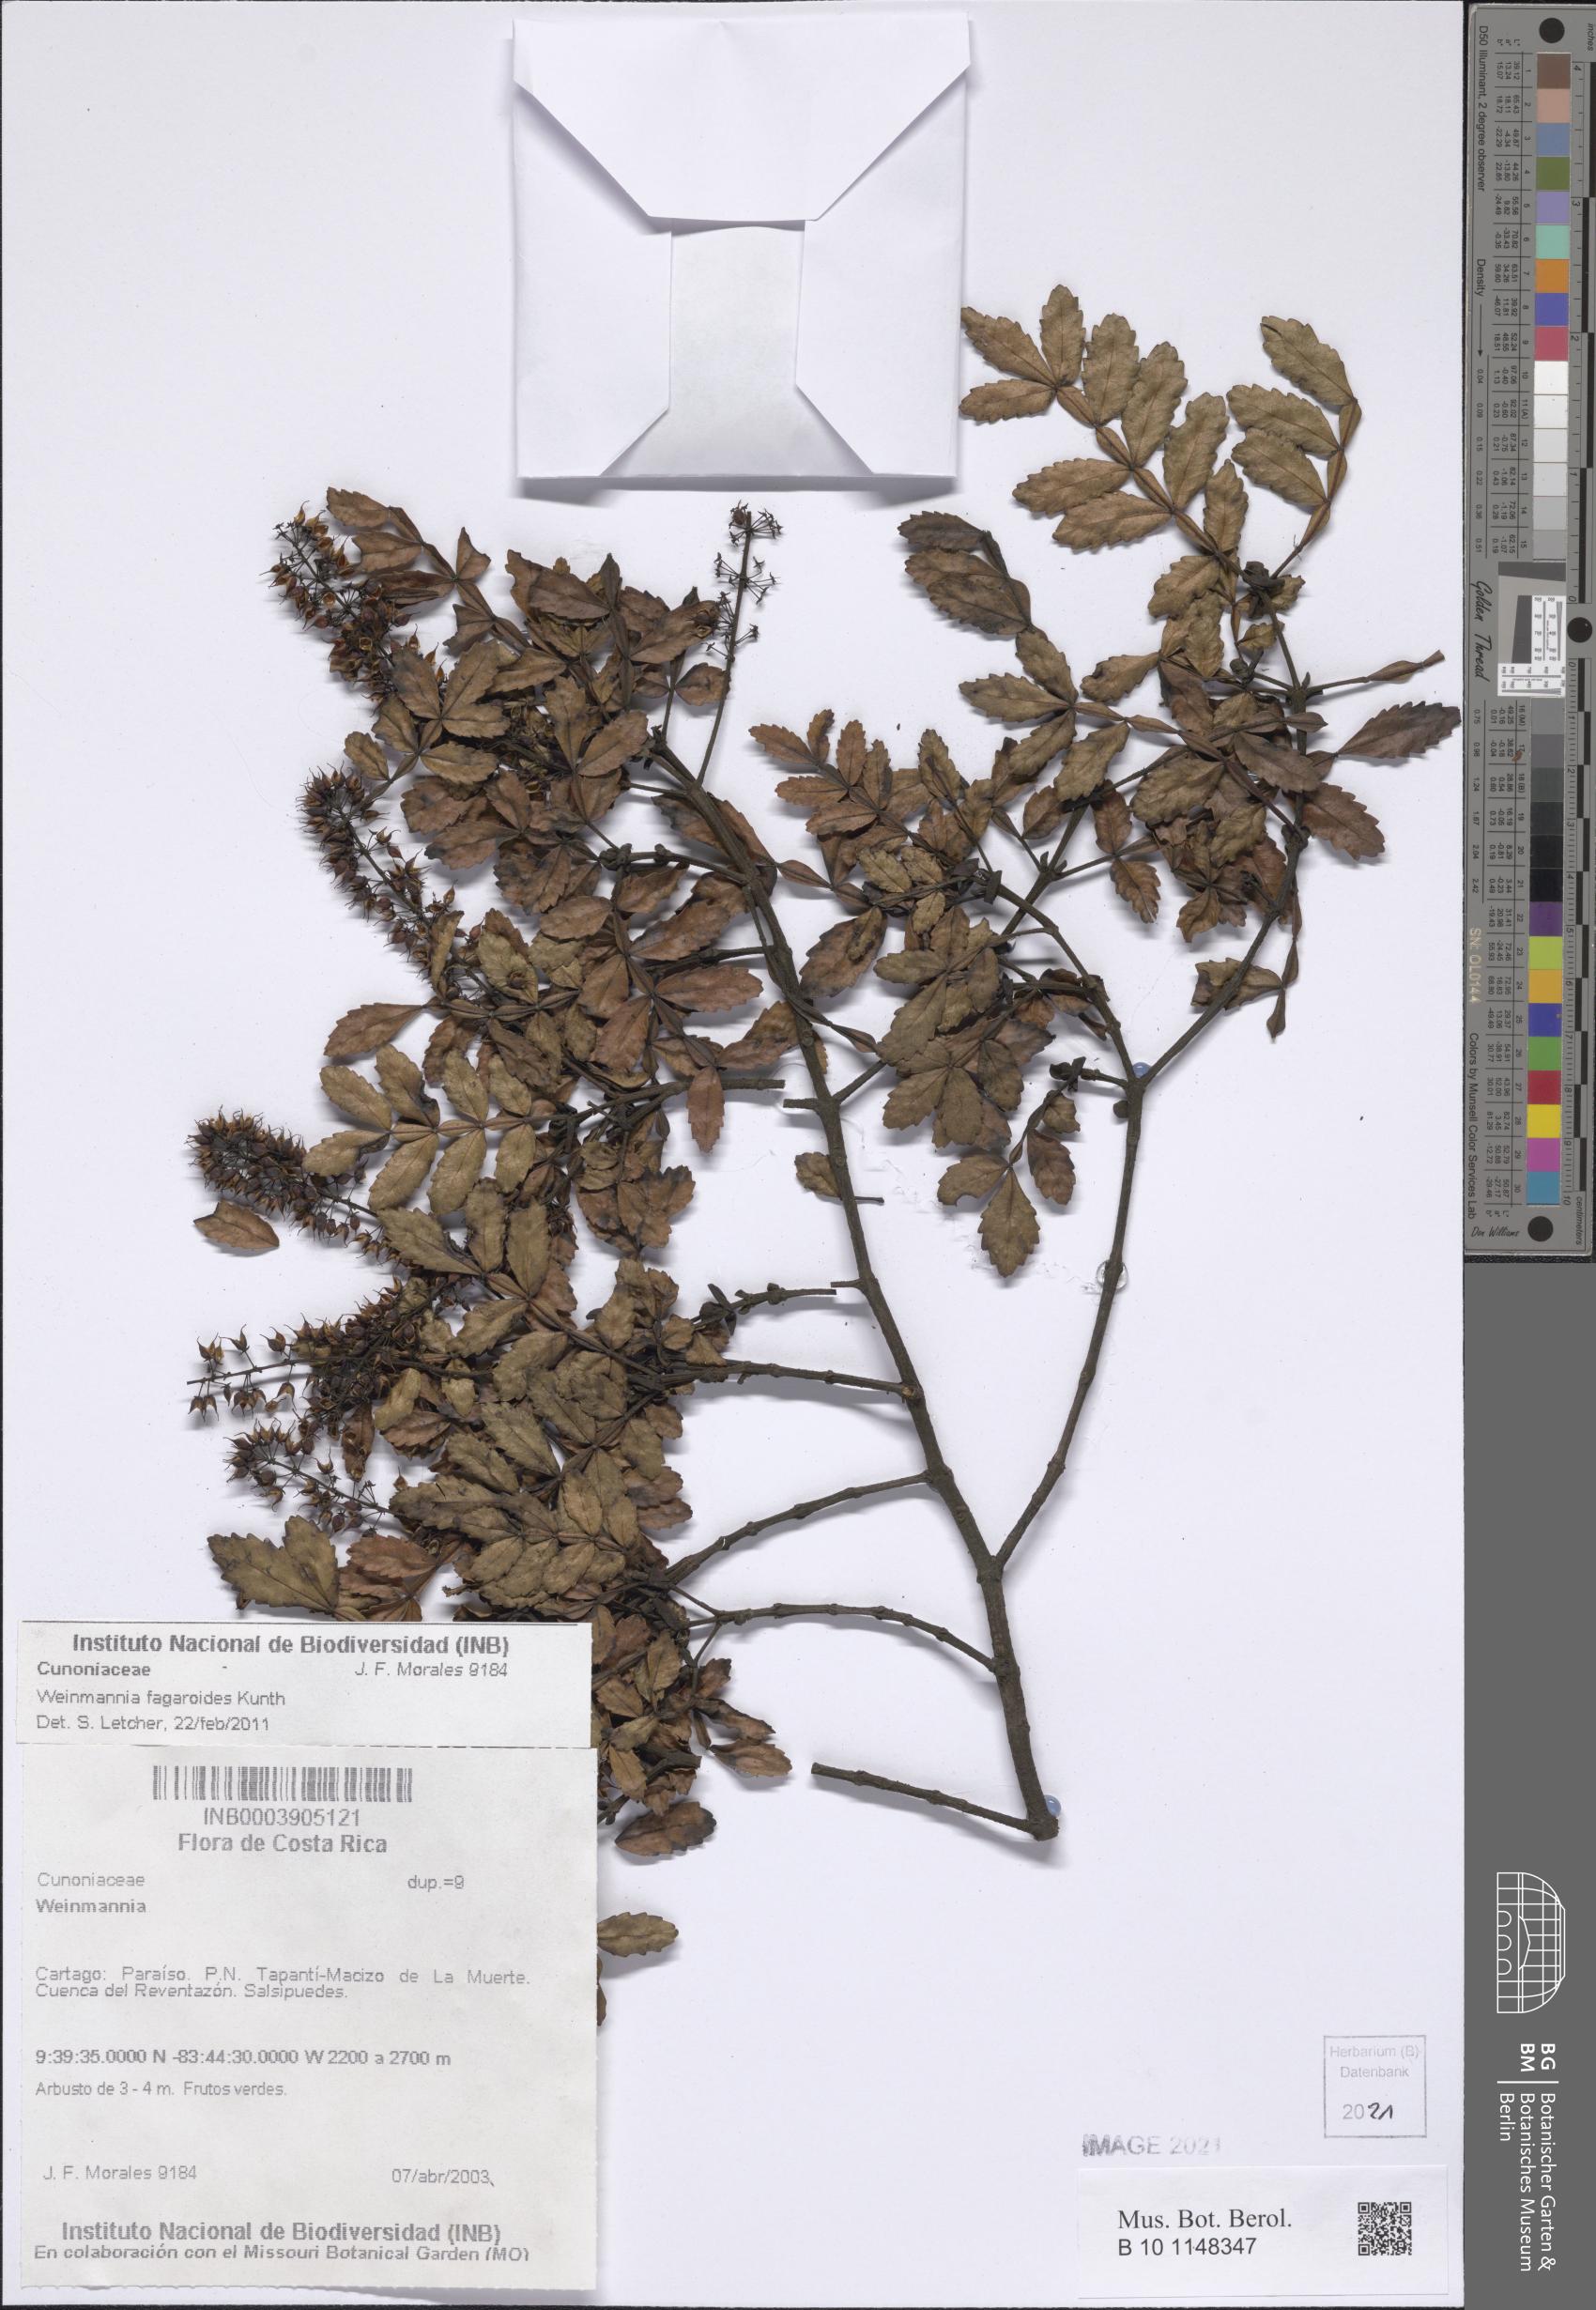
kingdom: Plantae
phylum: Tracheophyta
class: Magnoliopsida
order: Oxalidales
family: Cunoniaceae
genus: Weinmannia
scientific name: Weinmannia fagaroides
